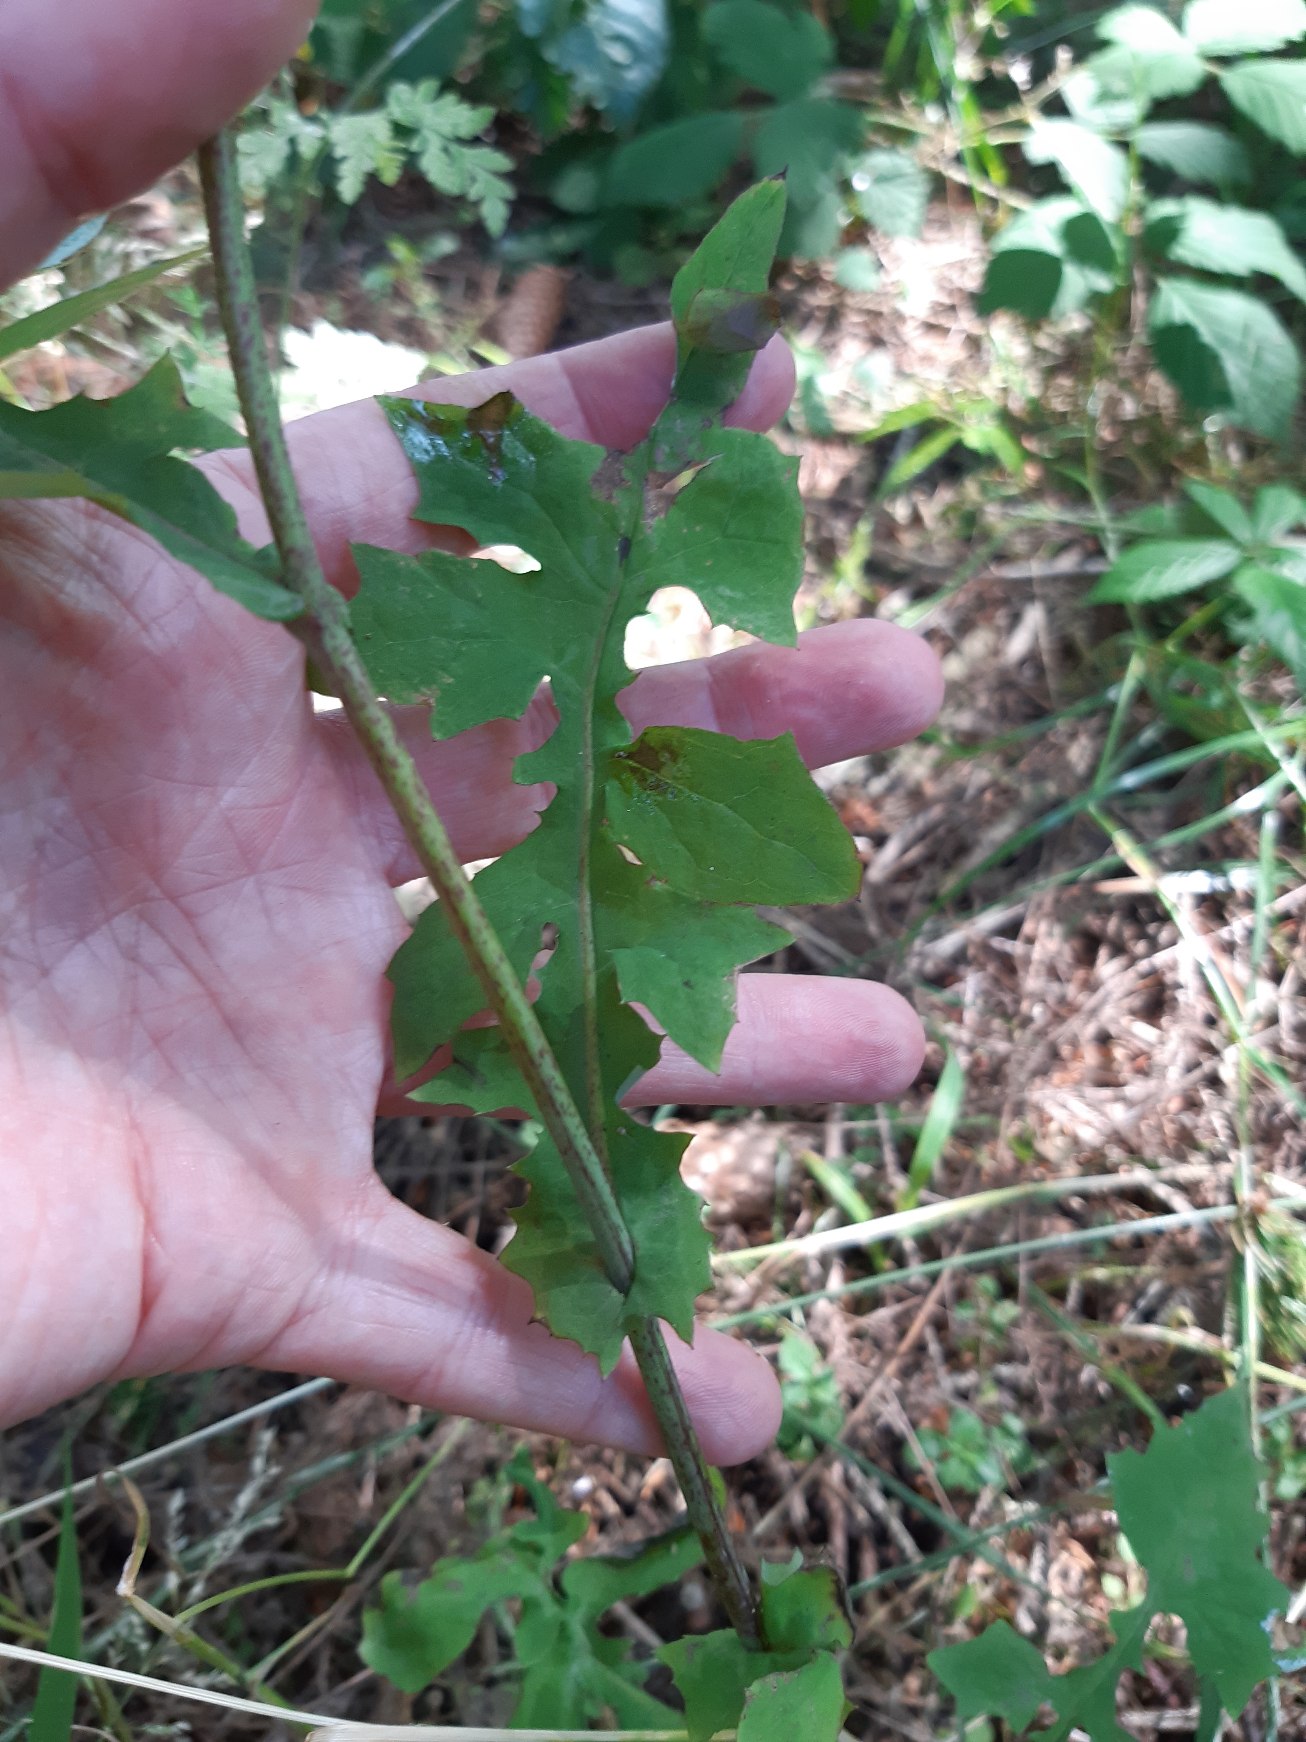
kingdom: Plantae
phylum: Tracheophyta
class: Magnoliopsida
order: Asterales
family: Asteraceae
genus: Mycelis
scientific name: Mycelis muralis
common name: Skov-salat
